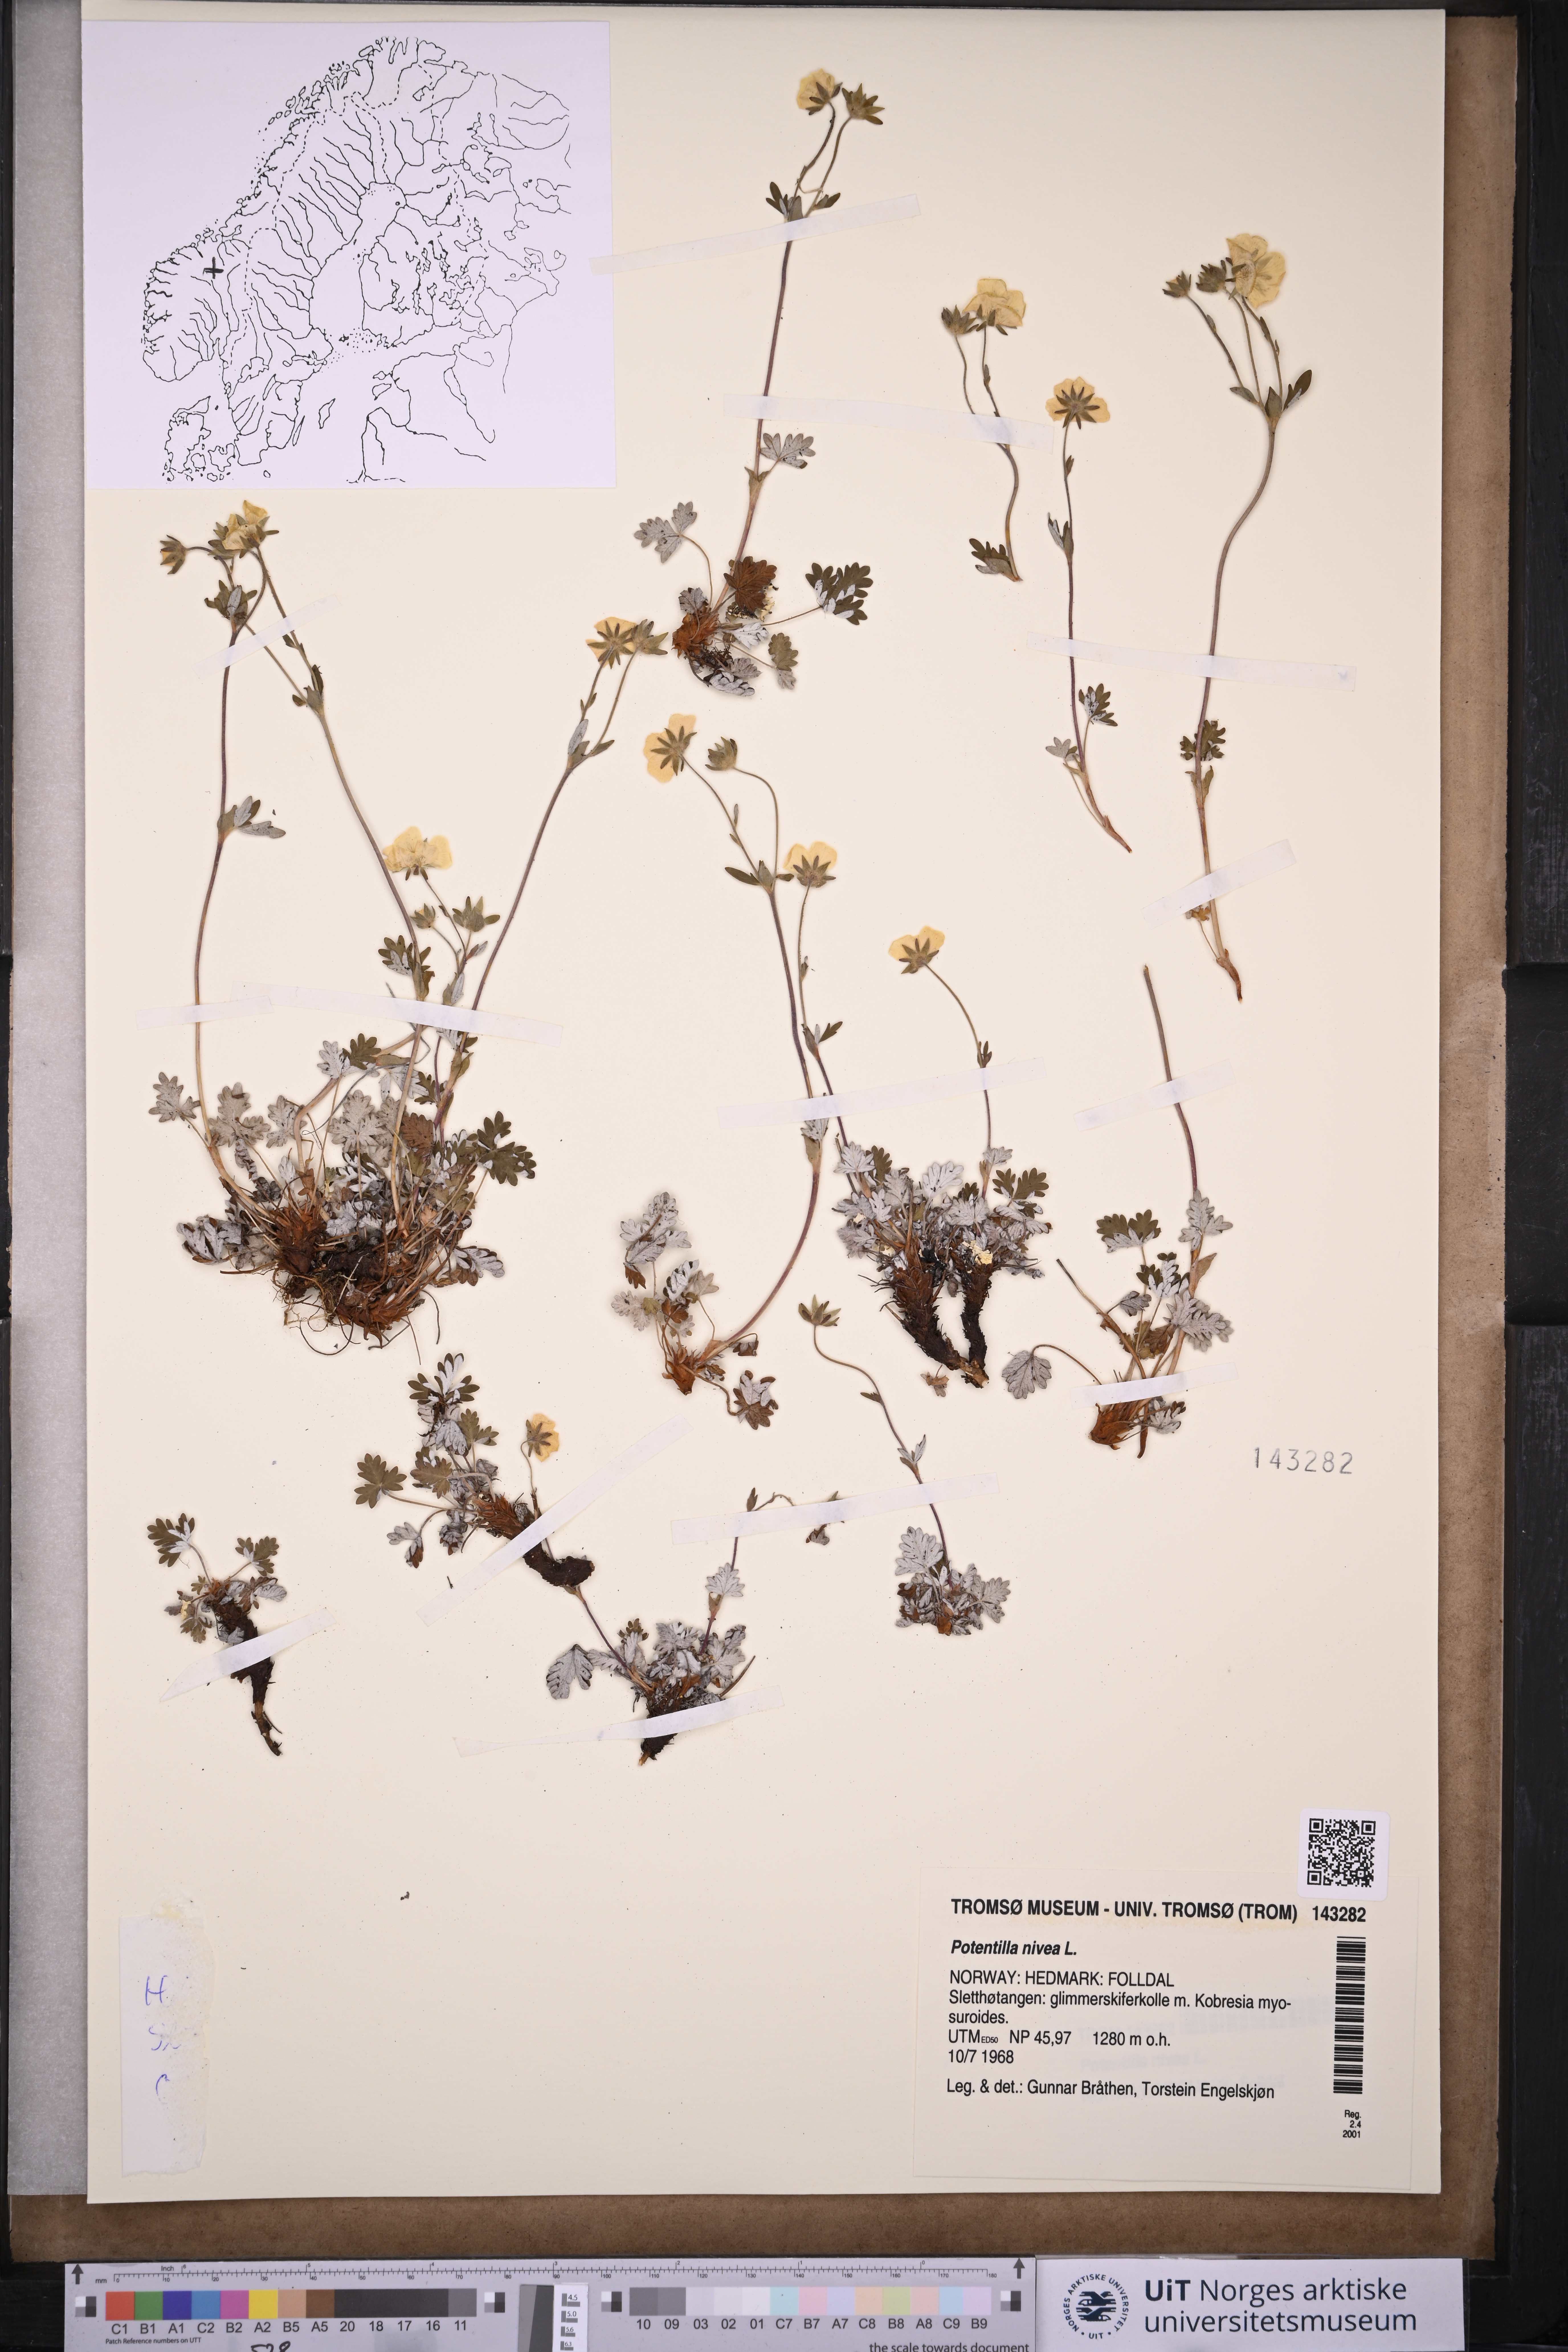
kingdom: Plantae
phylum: Tracheophyta
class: Magnoliopsida
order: Rosales
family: Rosaceae
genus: Potentilla
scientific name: Potentilla arenosa
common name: Bluff cinquefoil
